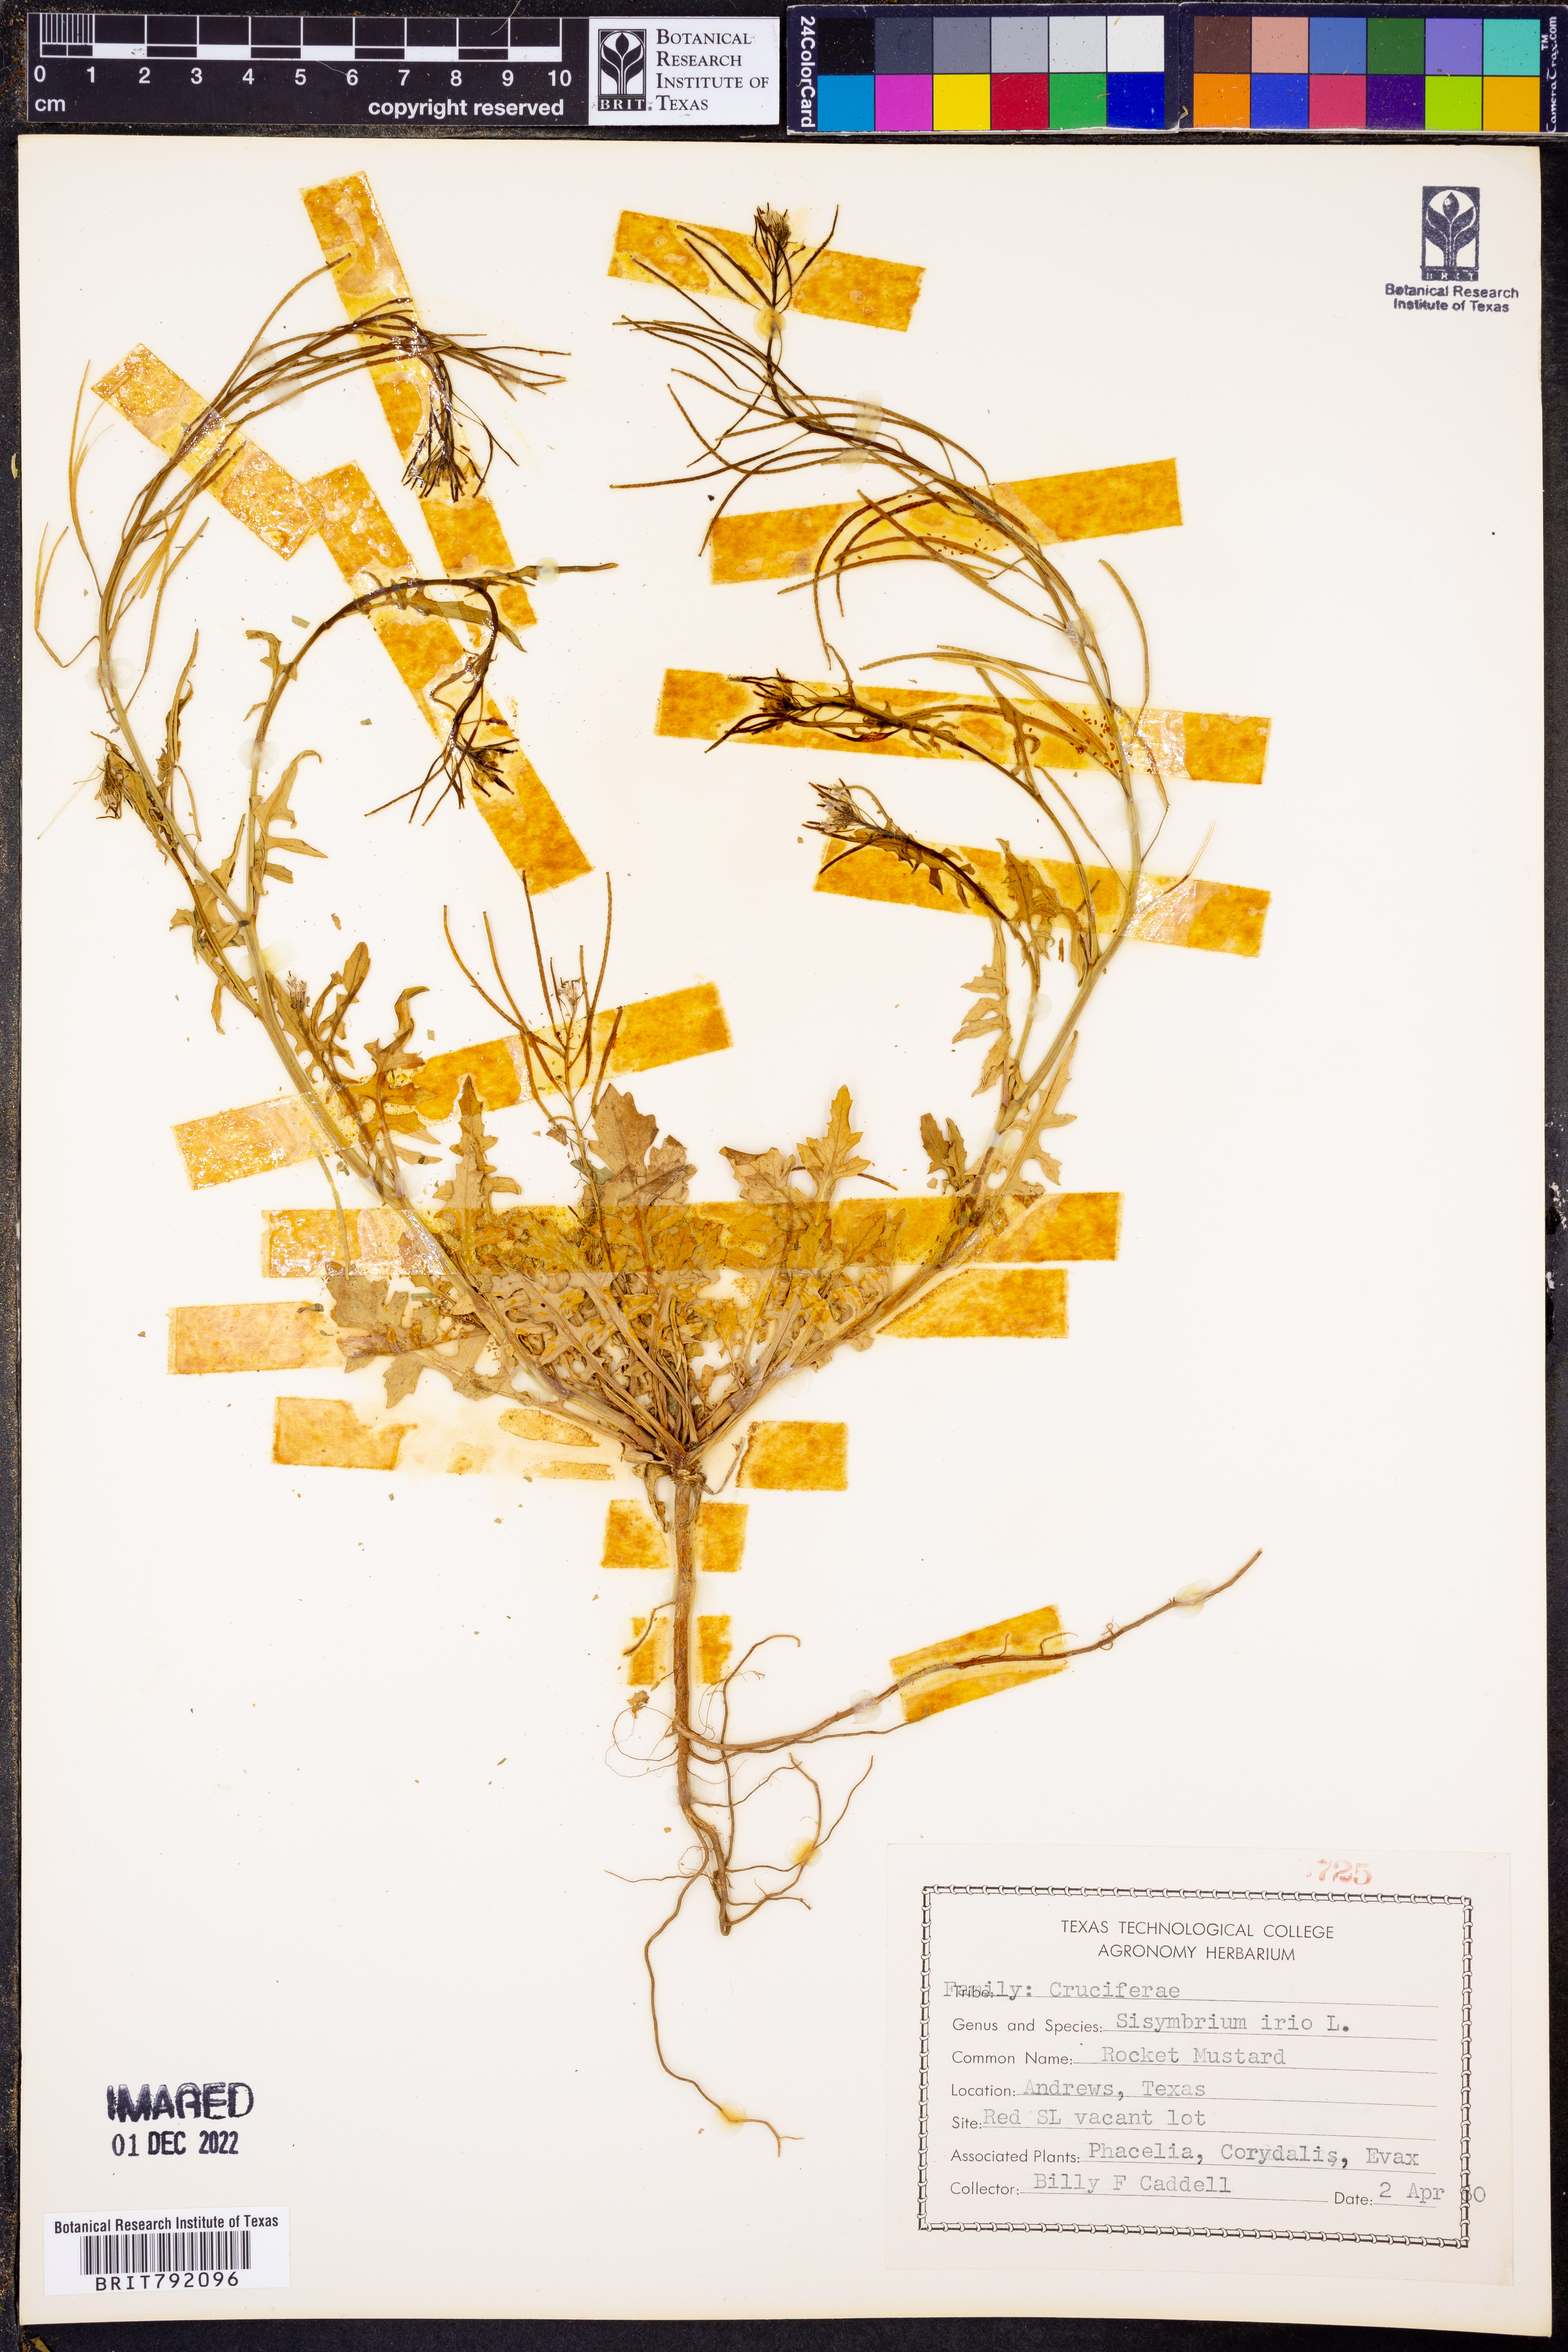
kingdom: Plantae
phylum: Tracheophyta
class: Magnoliopsida
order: Brassicales
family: Brassicaceae
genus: Sisymbrium
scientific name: Sisymbrium irio
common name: London rocket
